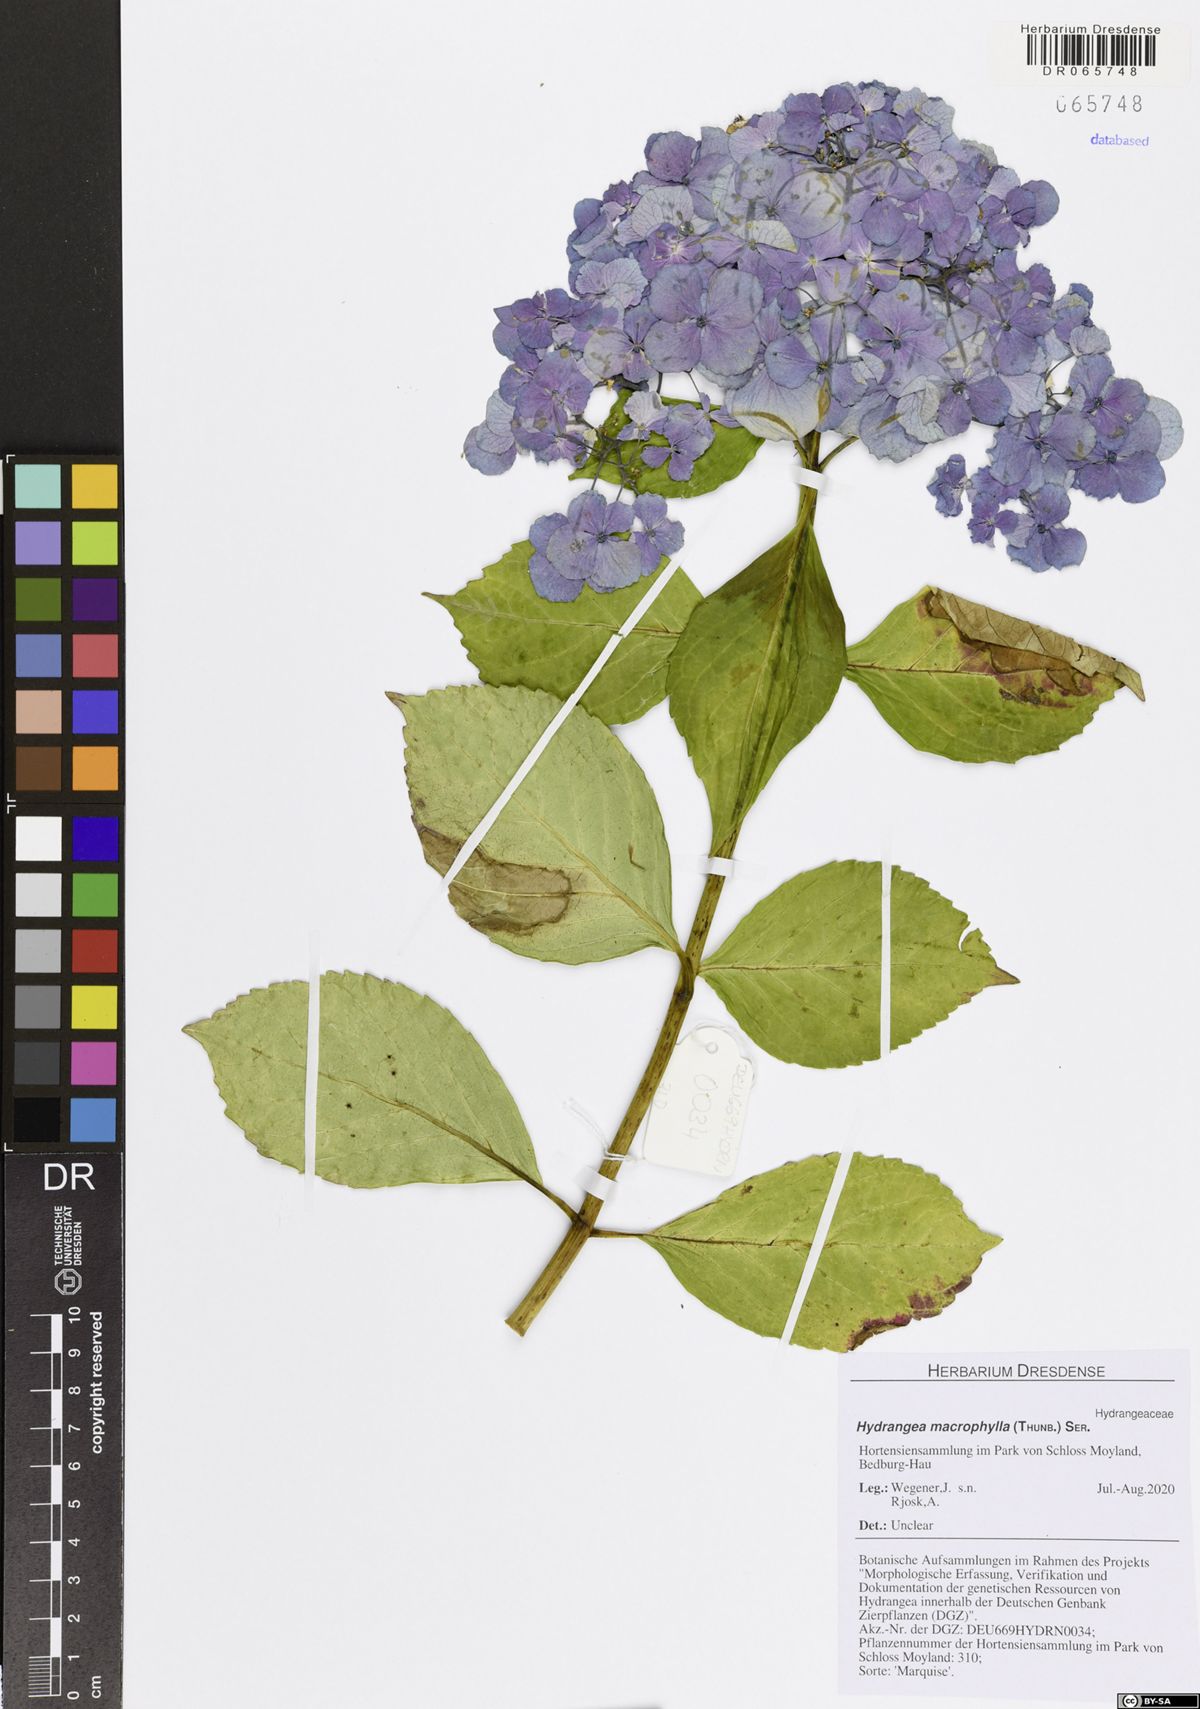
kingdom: Plantae
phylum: Tracheophyta
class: Magnoliopsida
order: Cornales
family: Hydrangeaceae
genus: Hydrangea
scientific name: Hydrangea macrophylla
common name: Hydrangea
